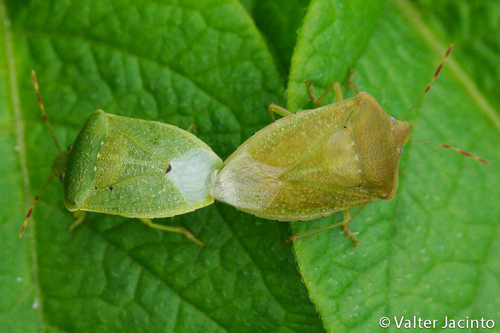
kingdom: Animalia
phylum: Arthropoda
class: Insecta
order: Hemiptera
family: Pentatomidae
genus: Nezara
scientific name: Nezara viridula
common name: Southern green stink bug
